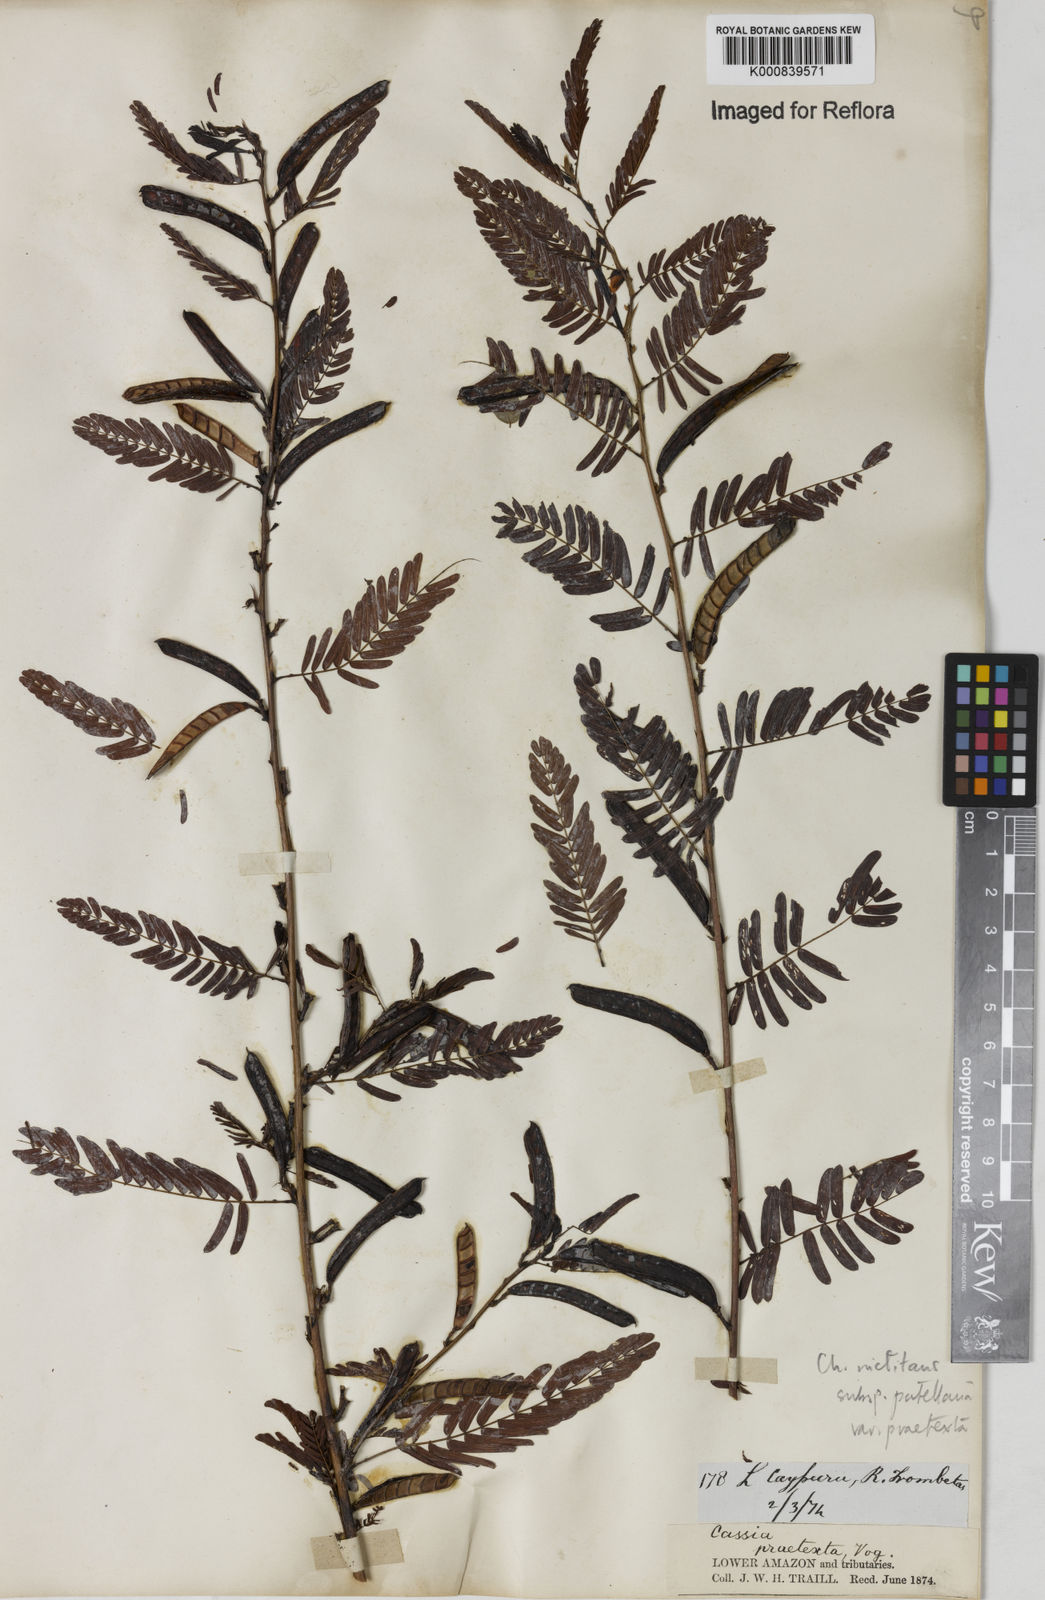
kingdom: Plantae
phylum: Tracheophyta
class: Magnoliopsida
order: Fabales
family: Fabaceae
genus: Chamaecrista
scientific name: Chamaecrista nictitans
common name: Sensitive cassia
